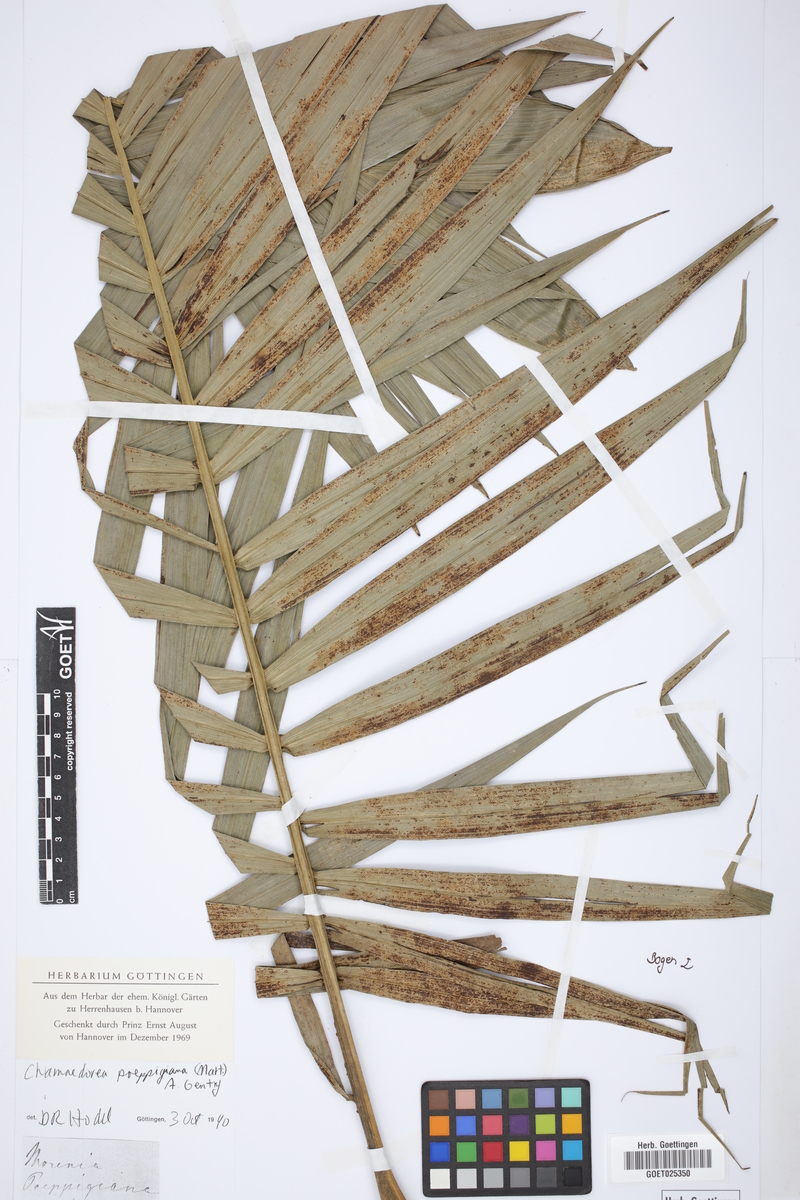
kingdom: Plantae
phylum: Tracheophyta
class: Liliopsida
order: Arecales
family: Arecaceae
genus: Chamaedorea
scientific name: Chamaedorea linearis
